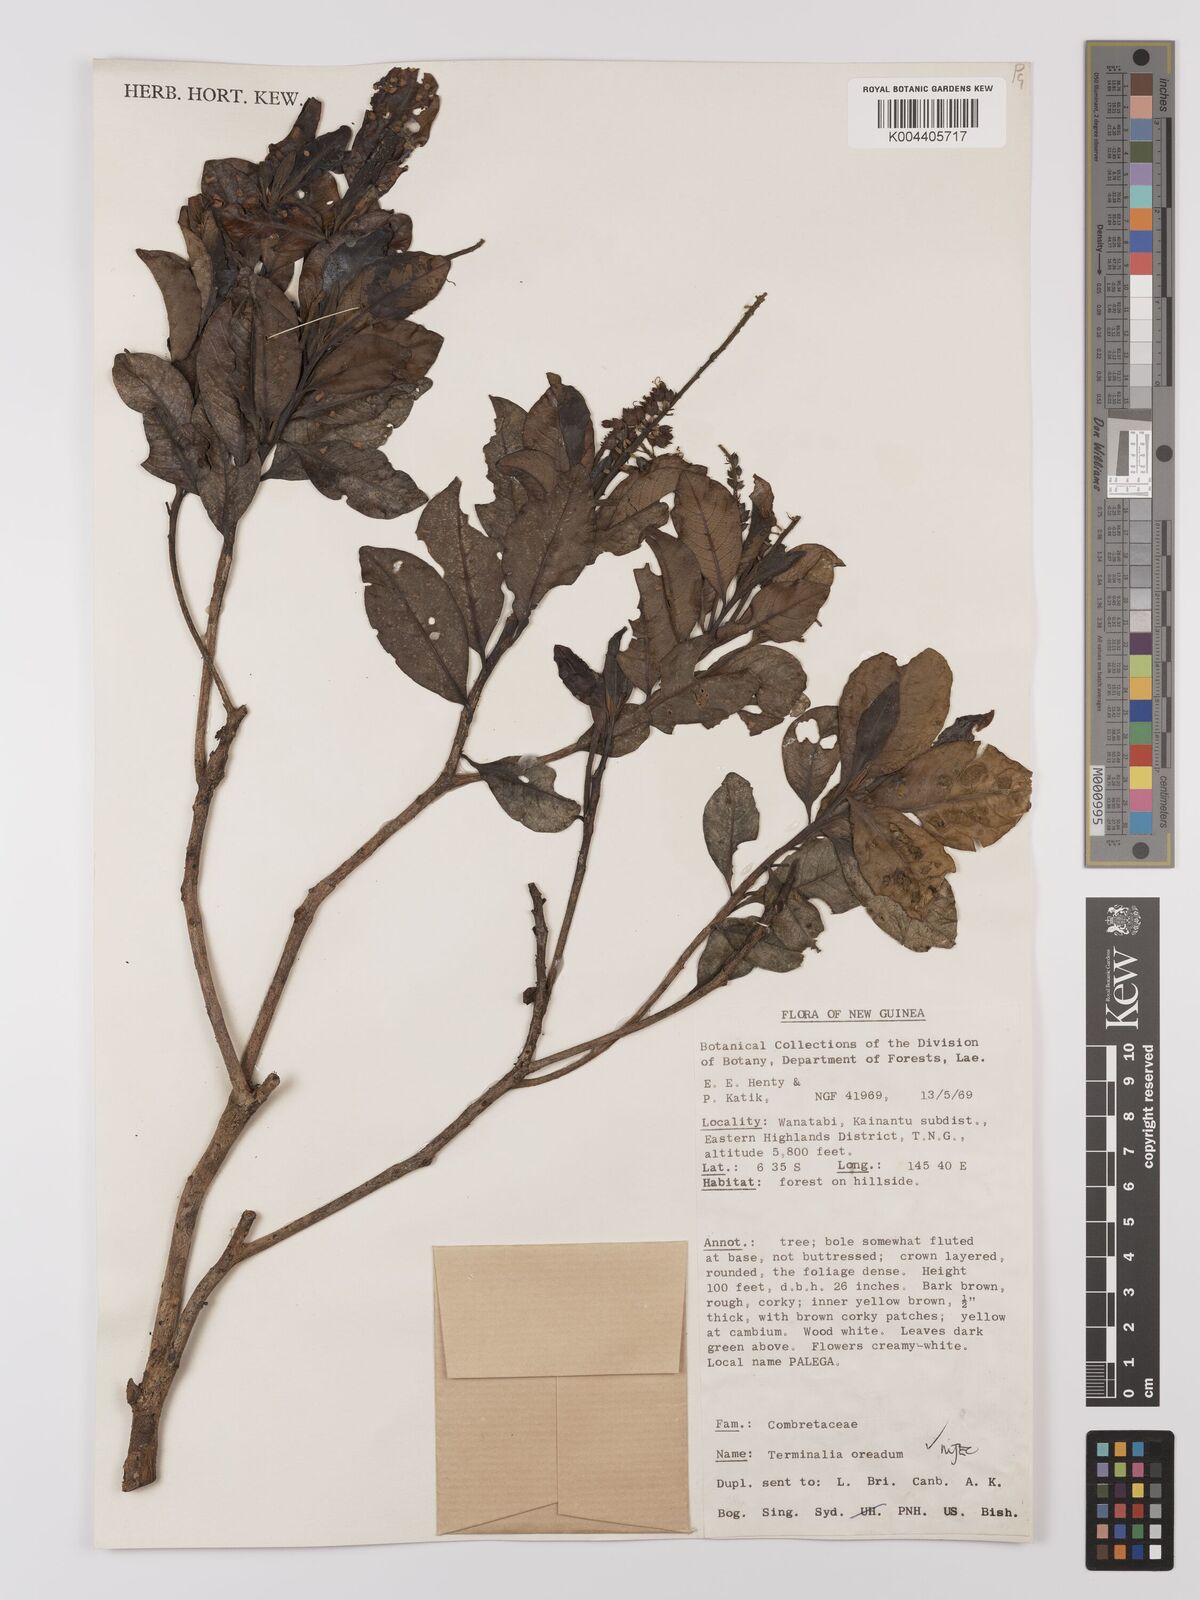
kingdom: Plantae
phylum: Tracheophyta
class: Magnoliopsida
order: Myrtales
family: Combretaceae
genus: Terminalia
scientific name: Terminalia oreadum
